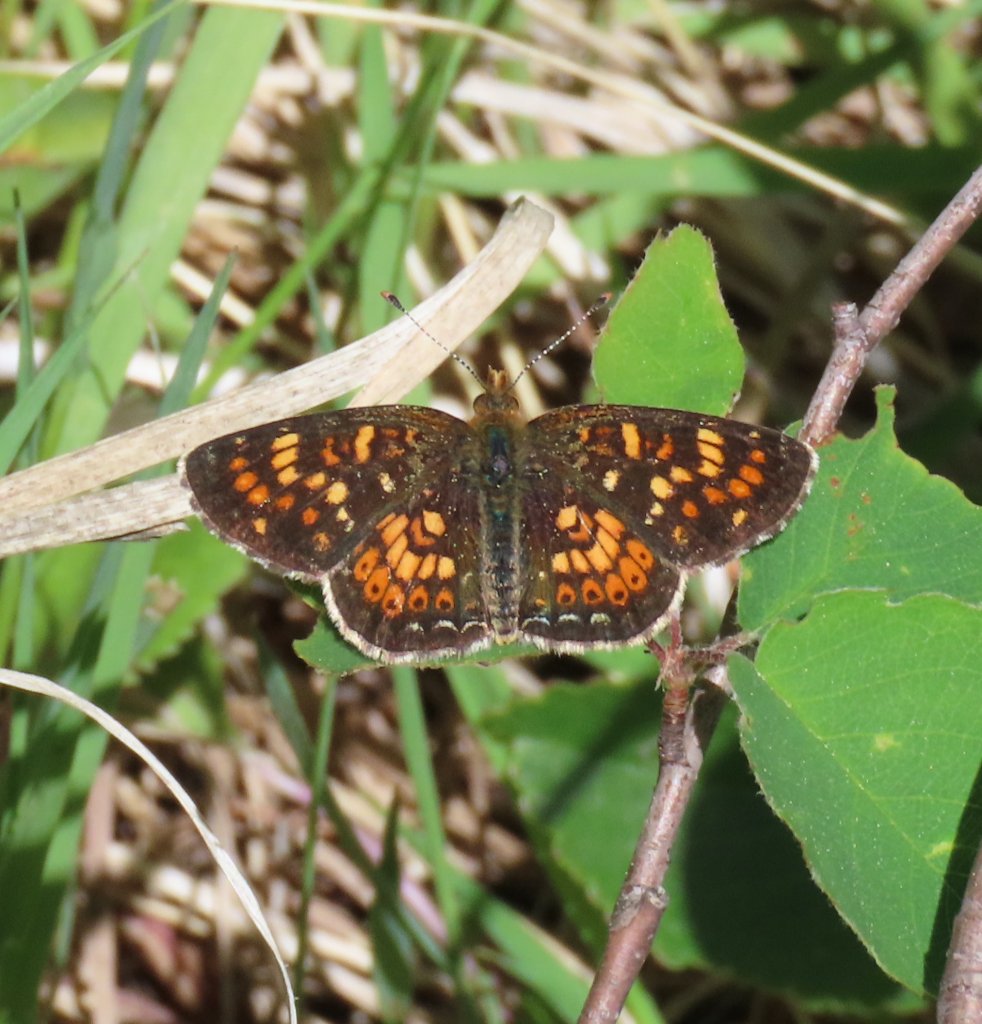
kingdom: Animalia
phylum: Arthropoda
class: Insecta
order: Lepidoptera
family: Nymphalidae
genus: Phyciodes
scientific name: Phyciodes tharos
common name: Field Crescent
